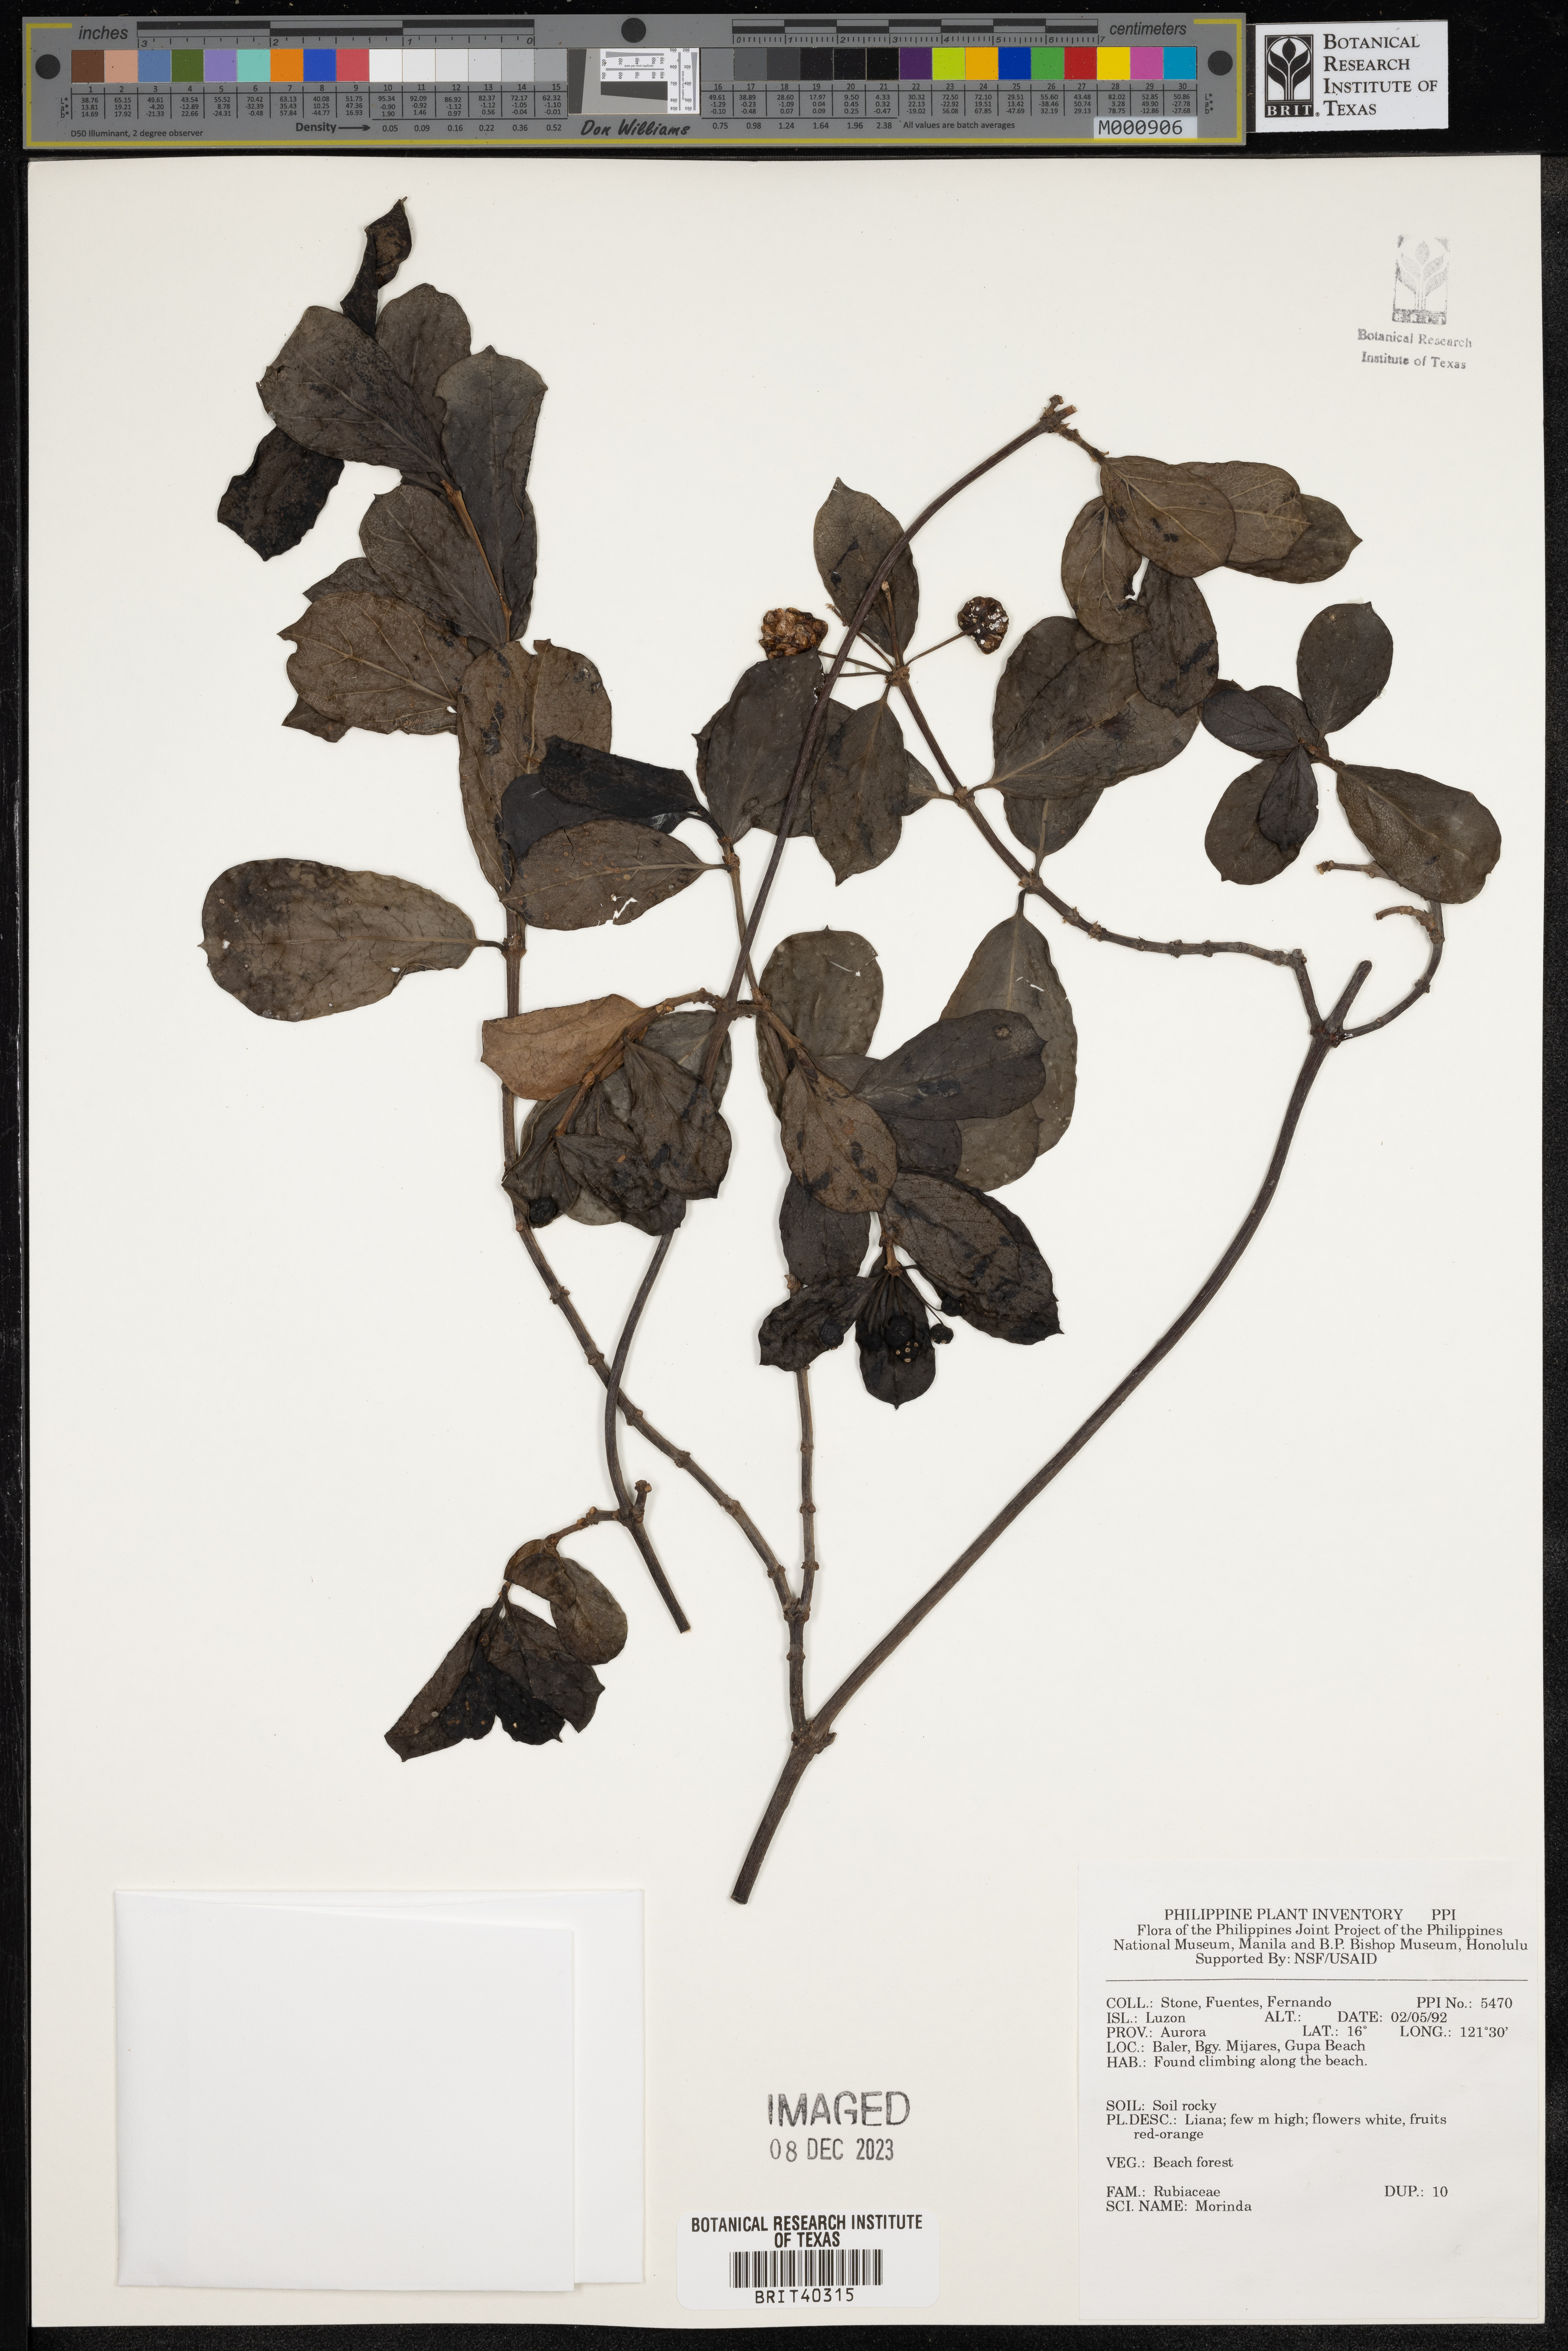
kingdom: Plantae
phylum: Tracheophyta
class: Magnoliopsida
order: Gentianales
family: Rubiaceae
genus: Morinda
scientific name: Morinda
